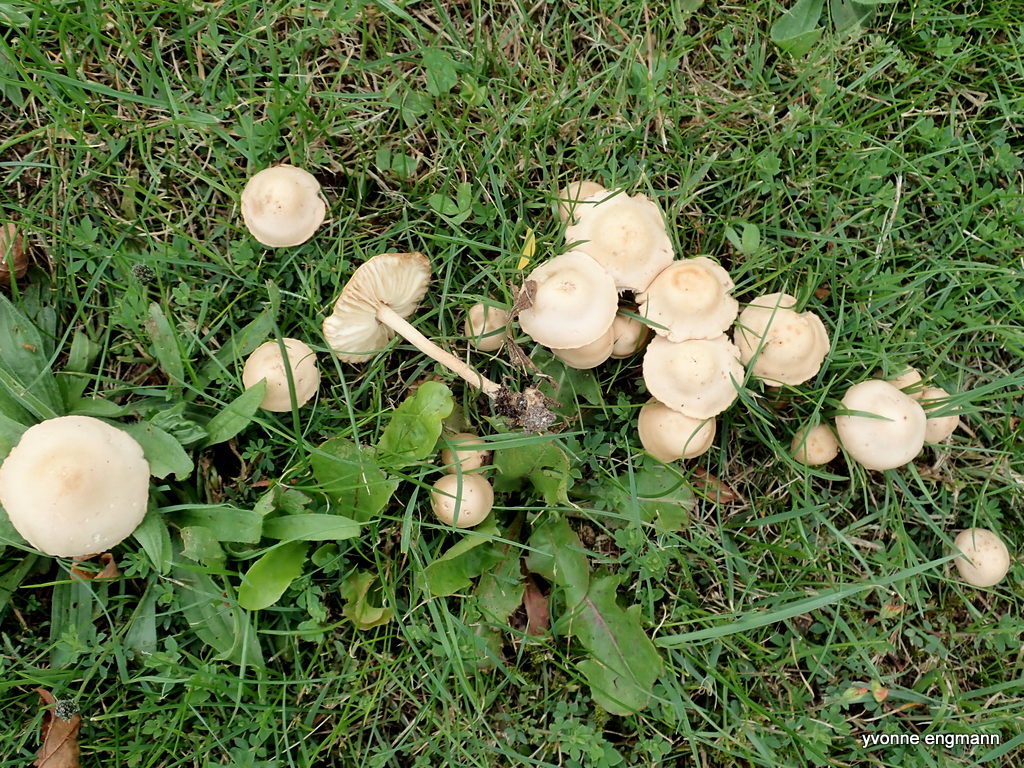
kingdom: Fungi
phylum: Basidiomycota
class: Agaricomycetes
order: Agaricales
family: Marasmiaceae
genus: Marasmius
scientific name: Marasmius oreades
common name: elledans-bruskhat
